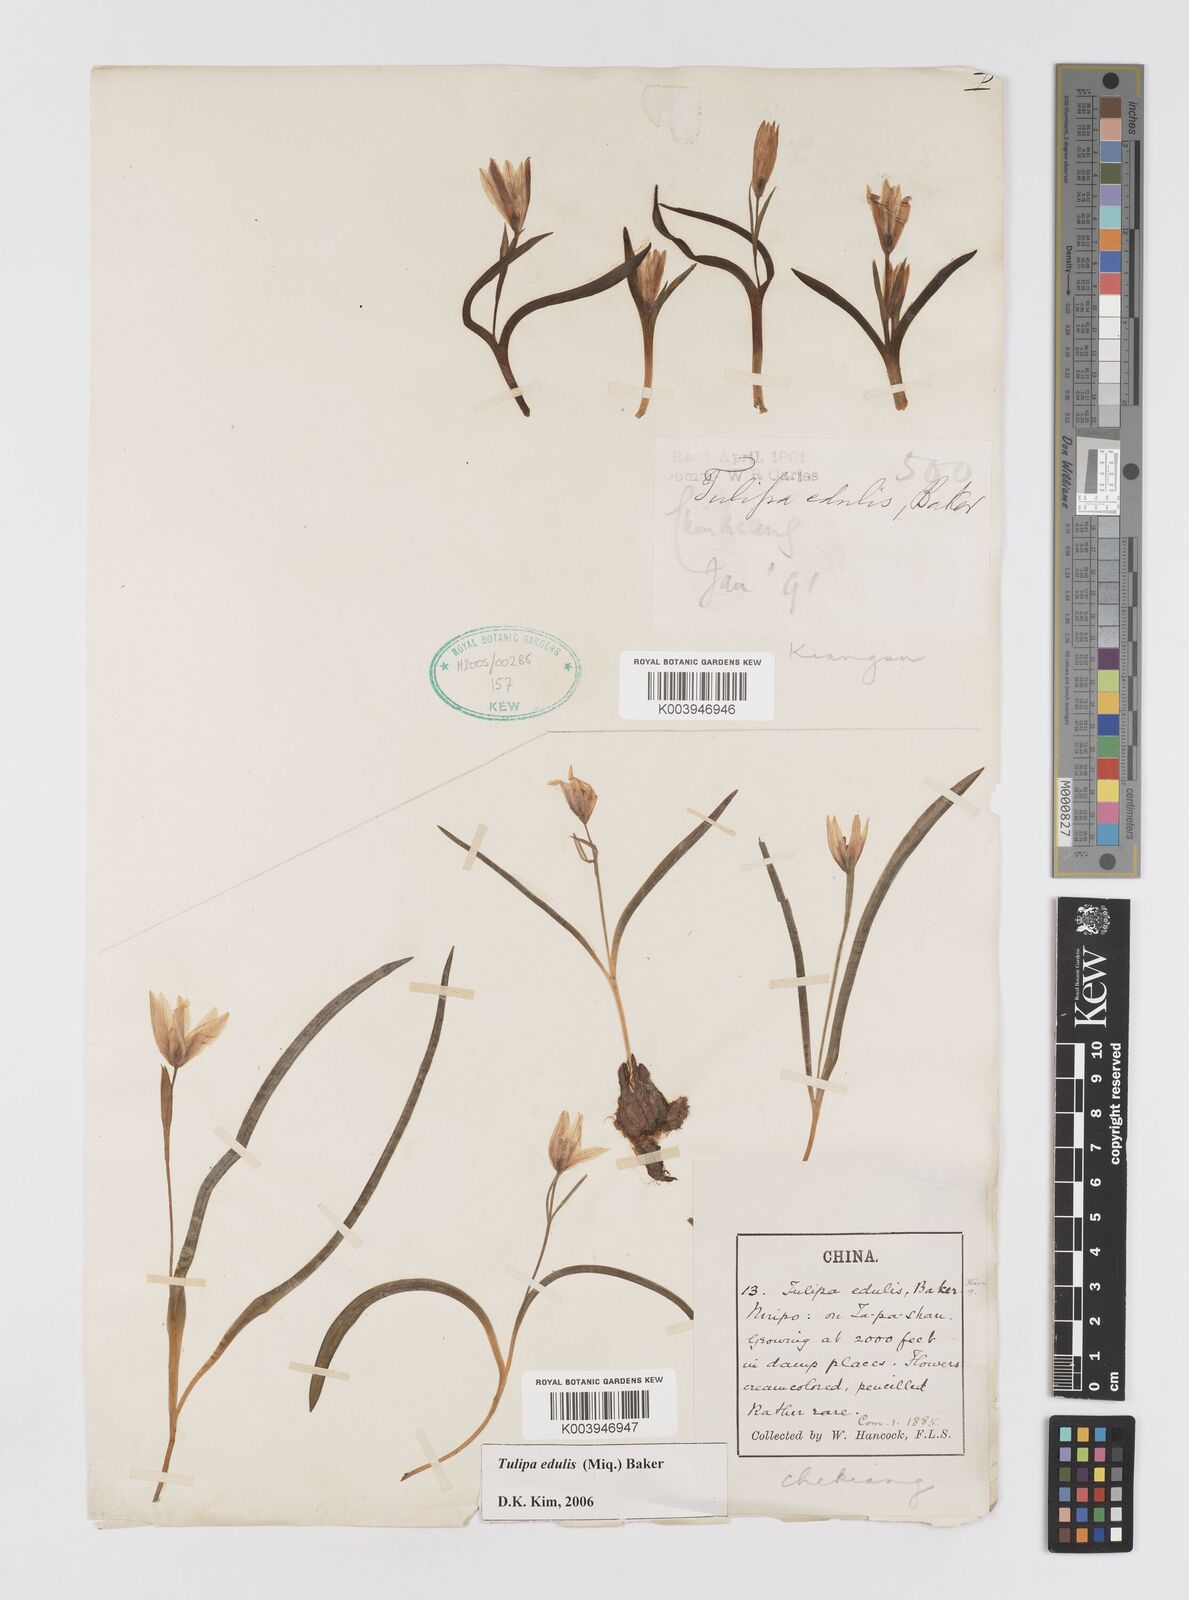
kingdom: Plantae
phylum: Tracheophyta
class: Liliopsida
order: Liliales
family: Liliaceae
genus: Amana
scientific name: Amana edulis
